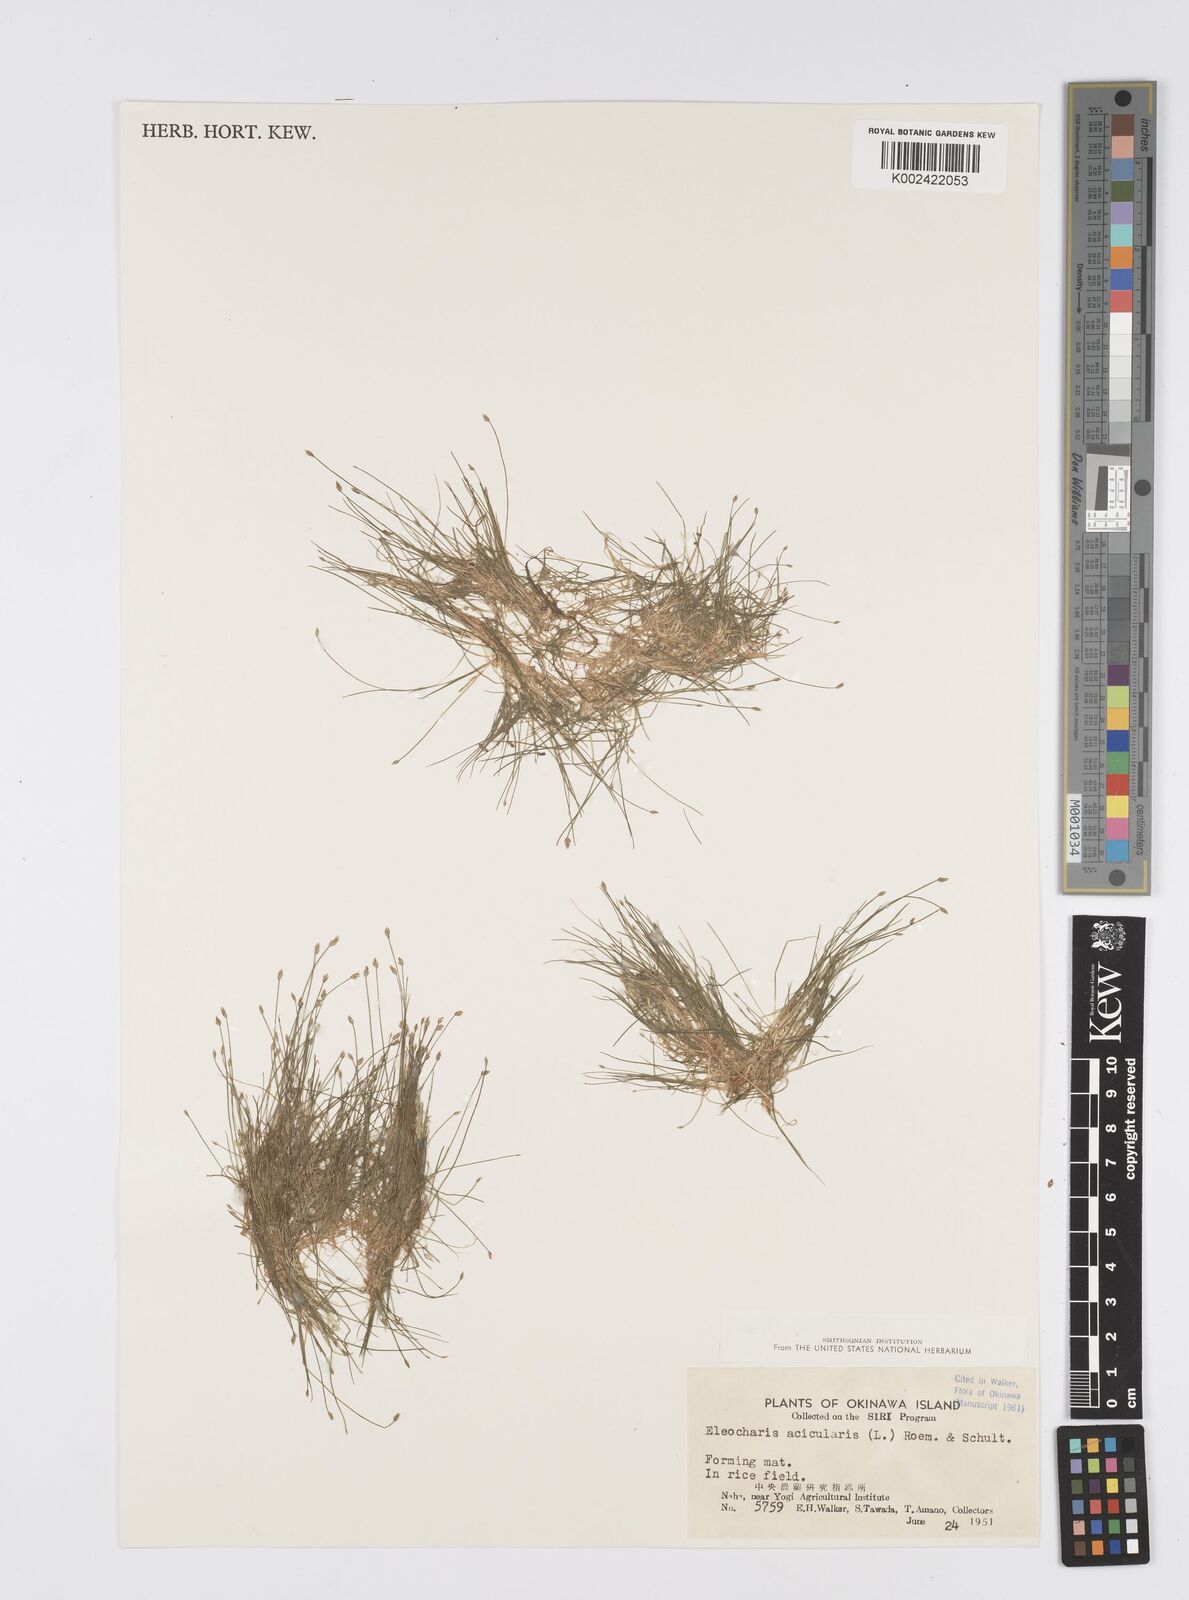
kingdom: Plantae
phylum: Tracheophyta
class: Liliopsida
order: Poales
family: Cyperaceae
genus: Eleocharis
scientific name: Eleocharis acicularis
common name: Needle spike-rush
